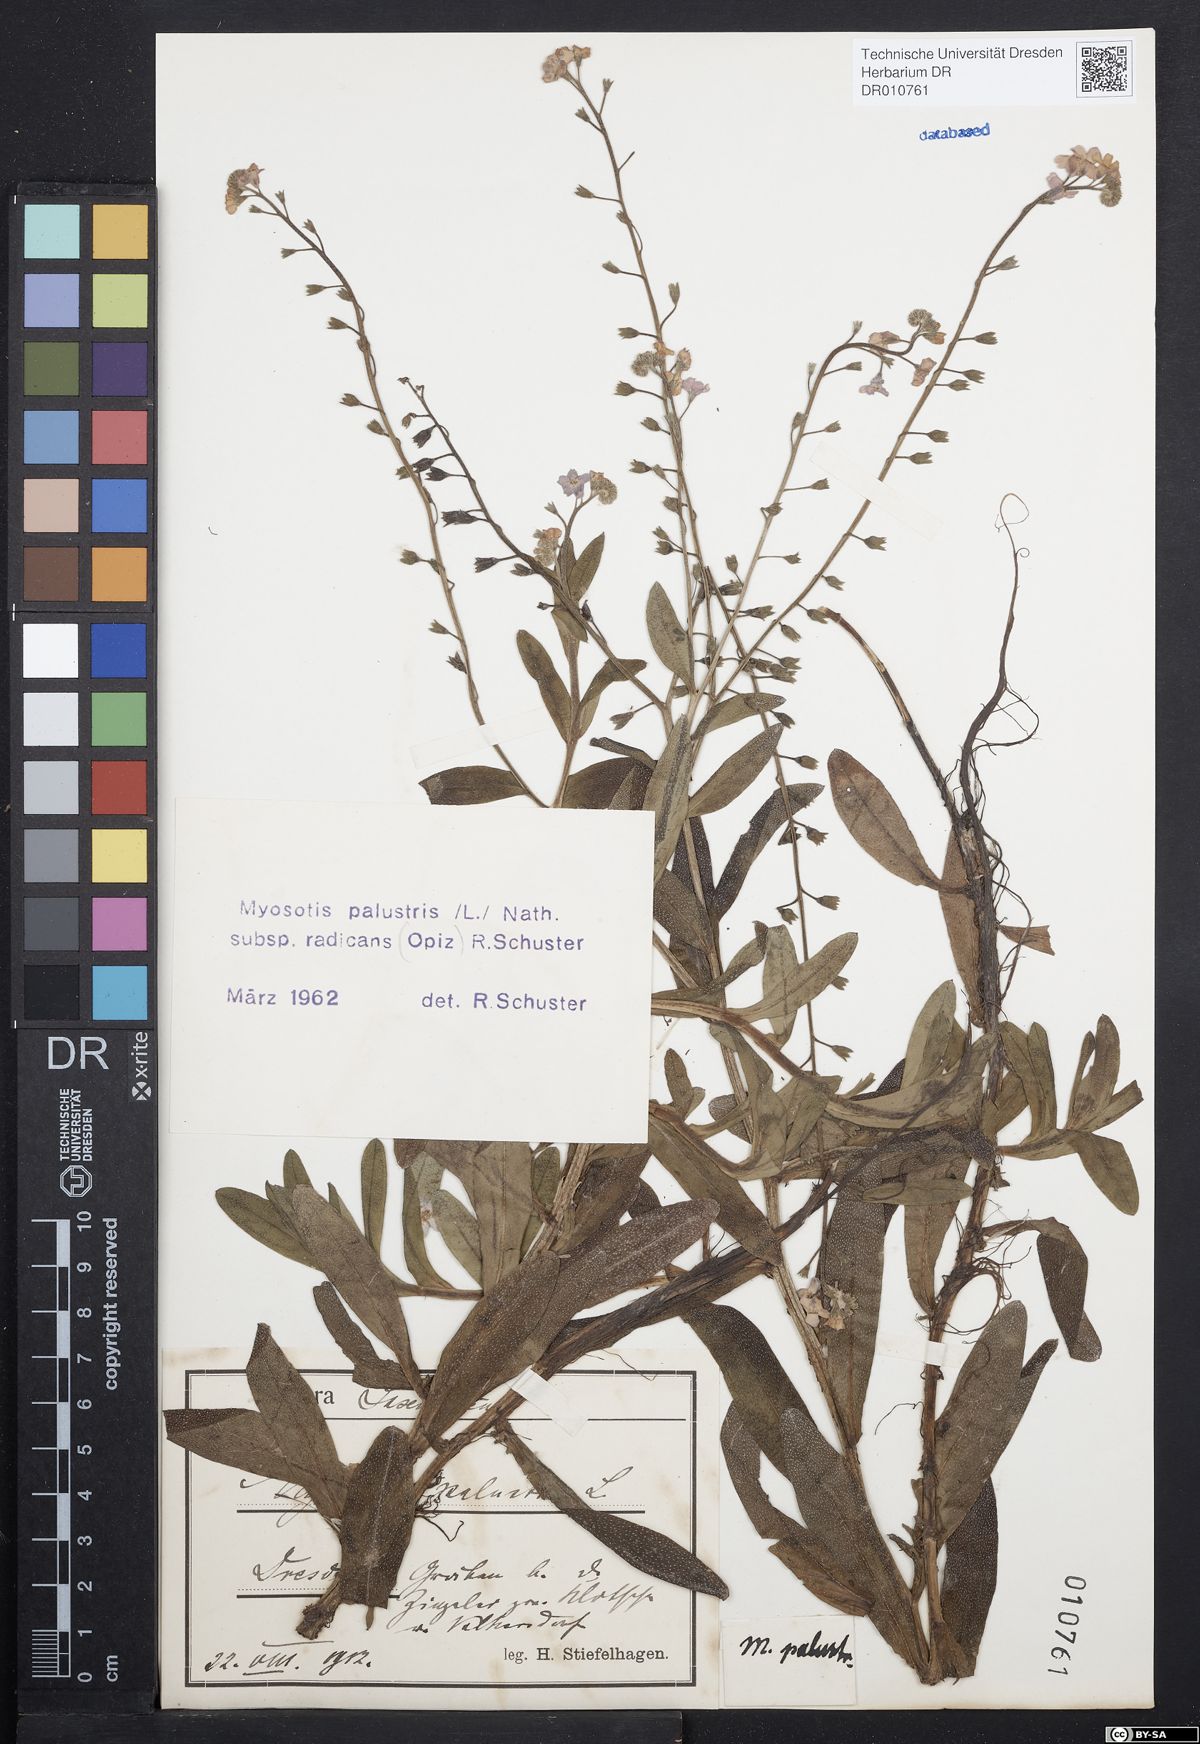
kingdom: Plantae
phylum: Tracheophyta
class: Magnoliopsida
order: Boraginales
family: Boraginaceae
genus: Myosotis
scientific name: Myosotis scorpioides
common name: Water forget-me-not
